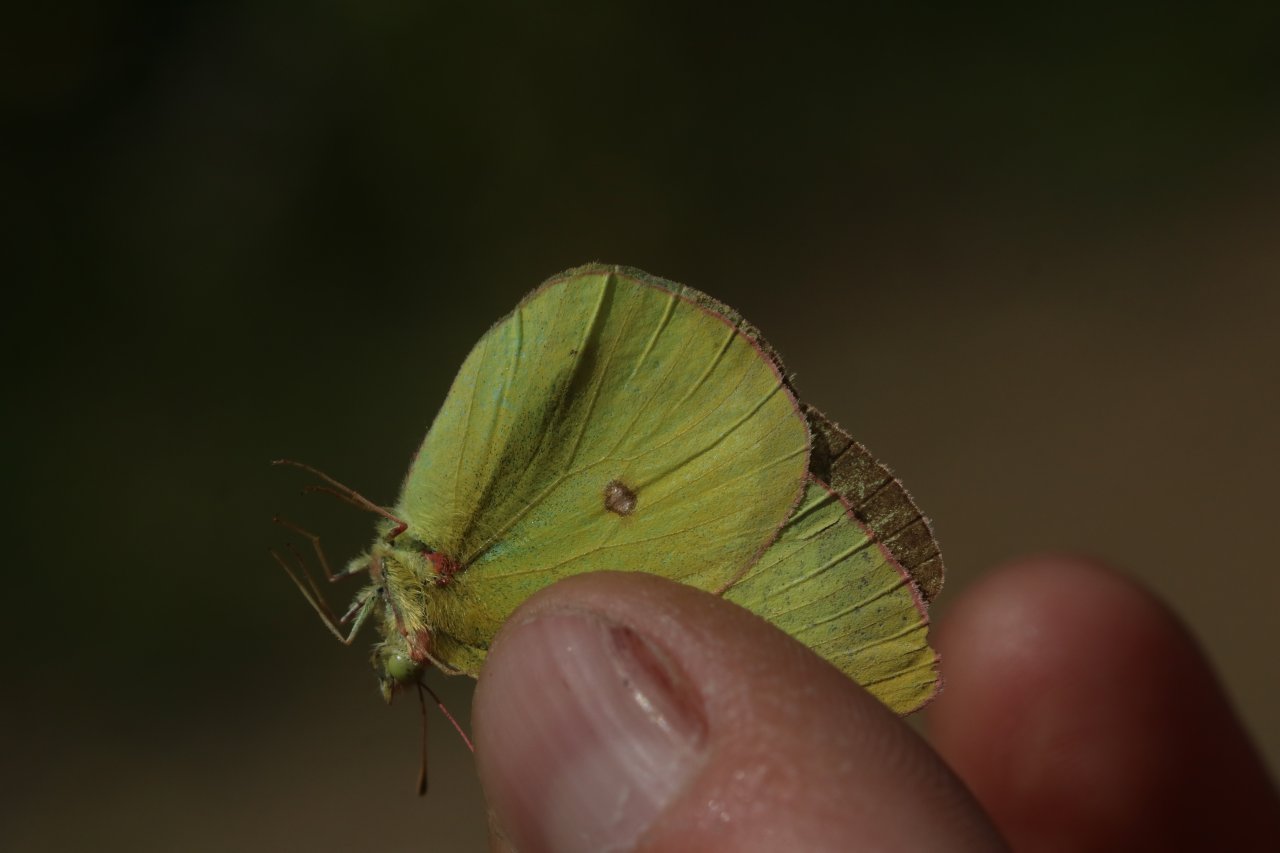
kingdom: Animalia
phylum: Arthropoda
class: Insecta
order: Lepidoptera
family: Pieridae
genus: Colias
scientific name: Colias interior
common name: Pink-edged Sulphur
